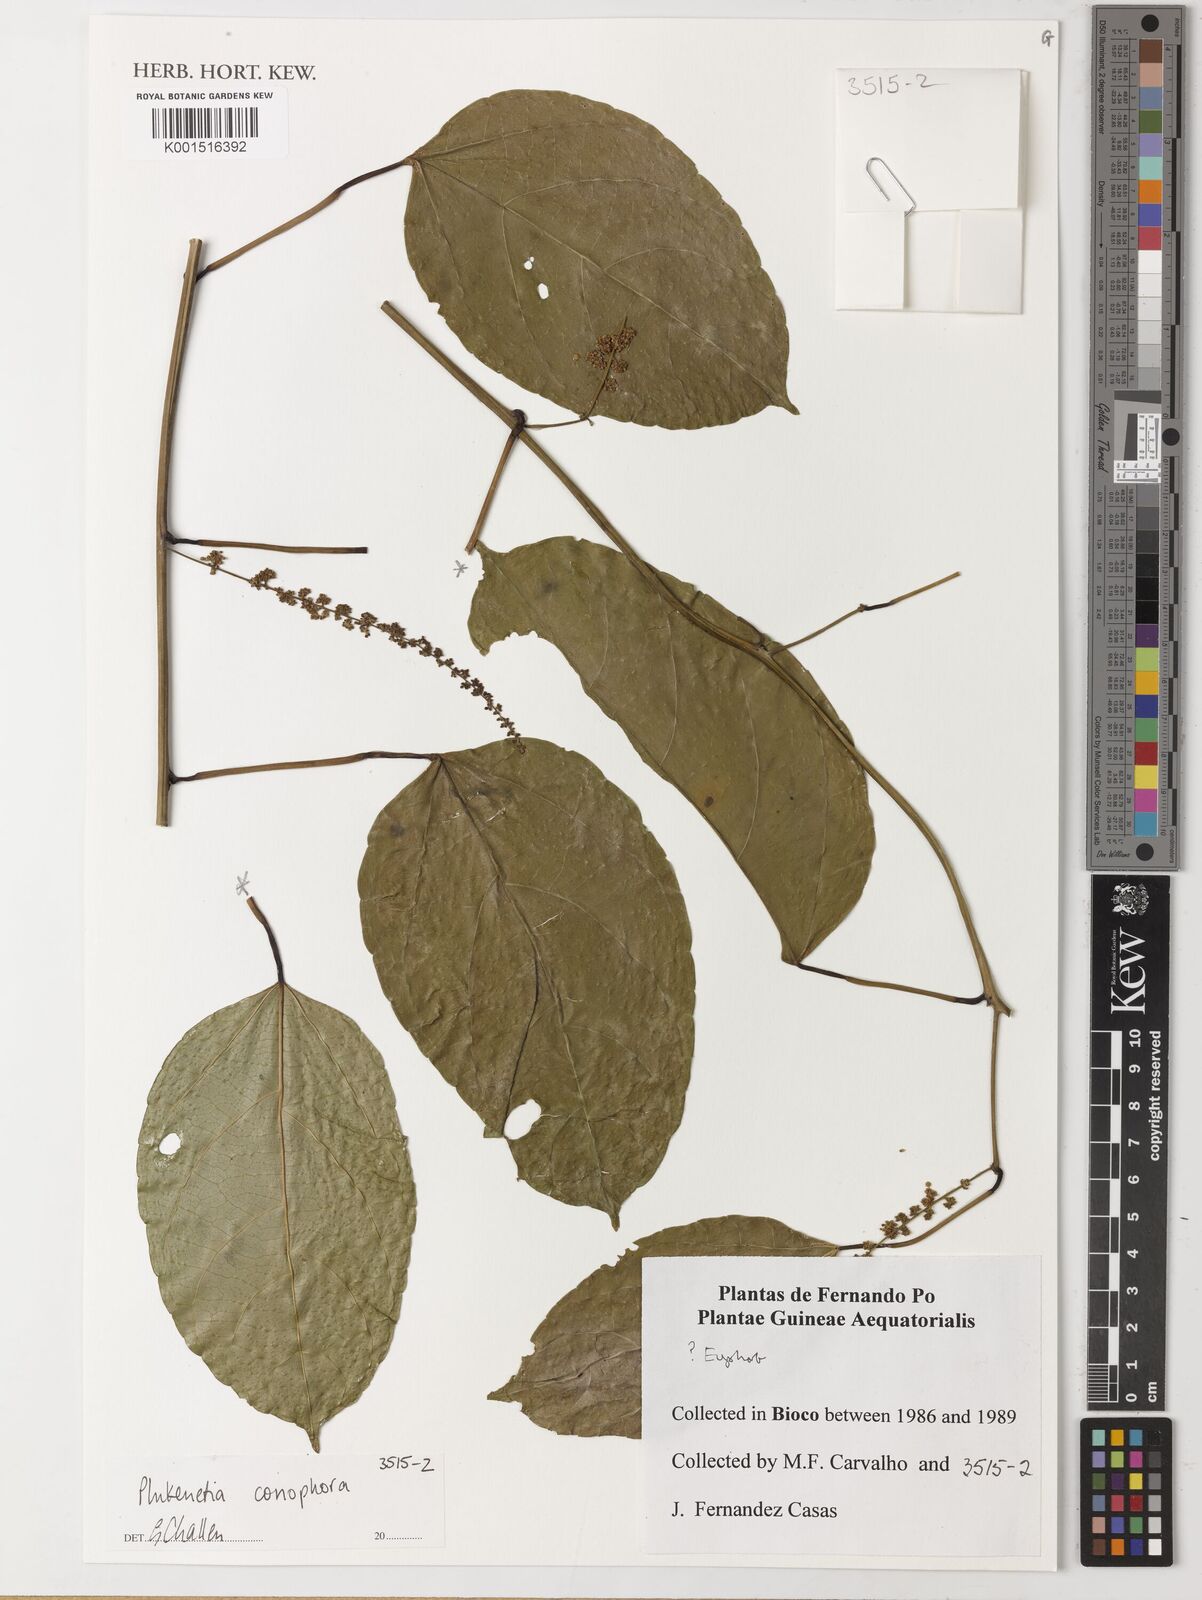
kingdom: Plantae
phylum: Tracheophyta
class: Magnoliopsida
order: Malpighiales
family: Euphorbiaceae
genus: Plukenetia
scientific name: Plukenetia conophora
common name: Owusa-nut
